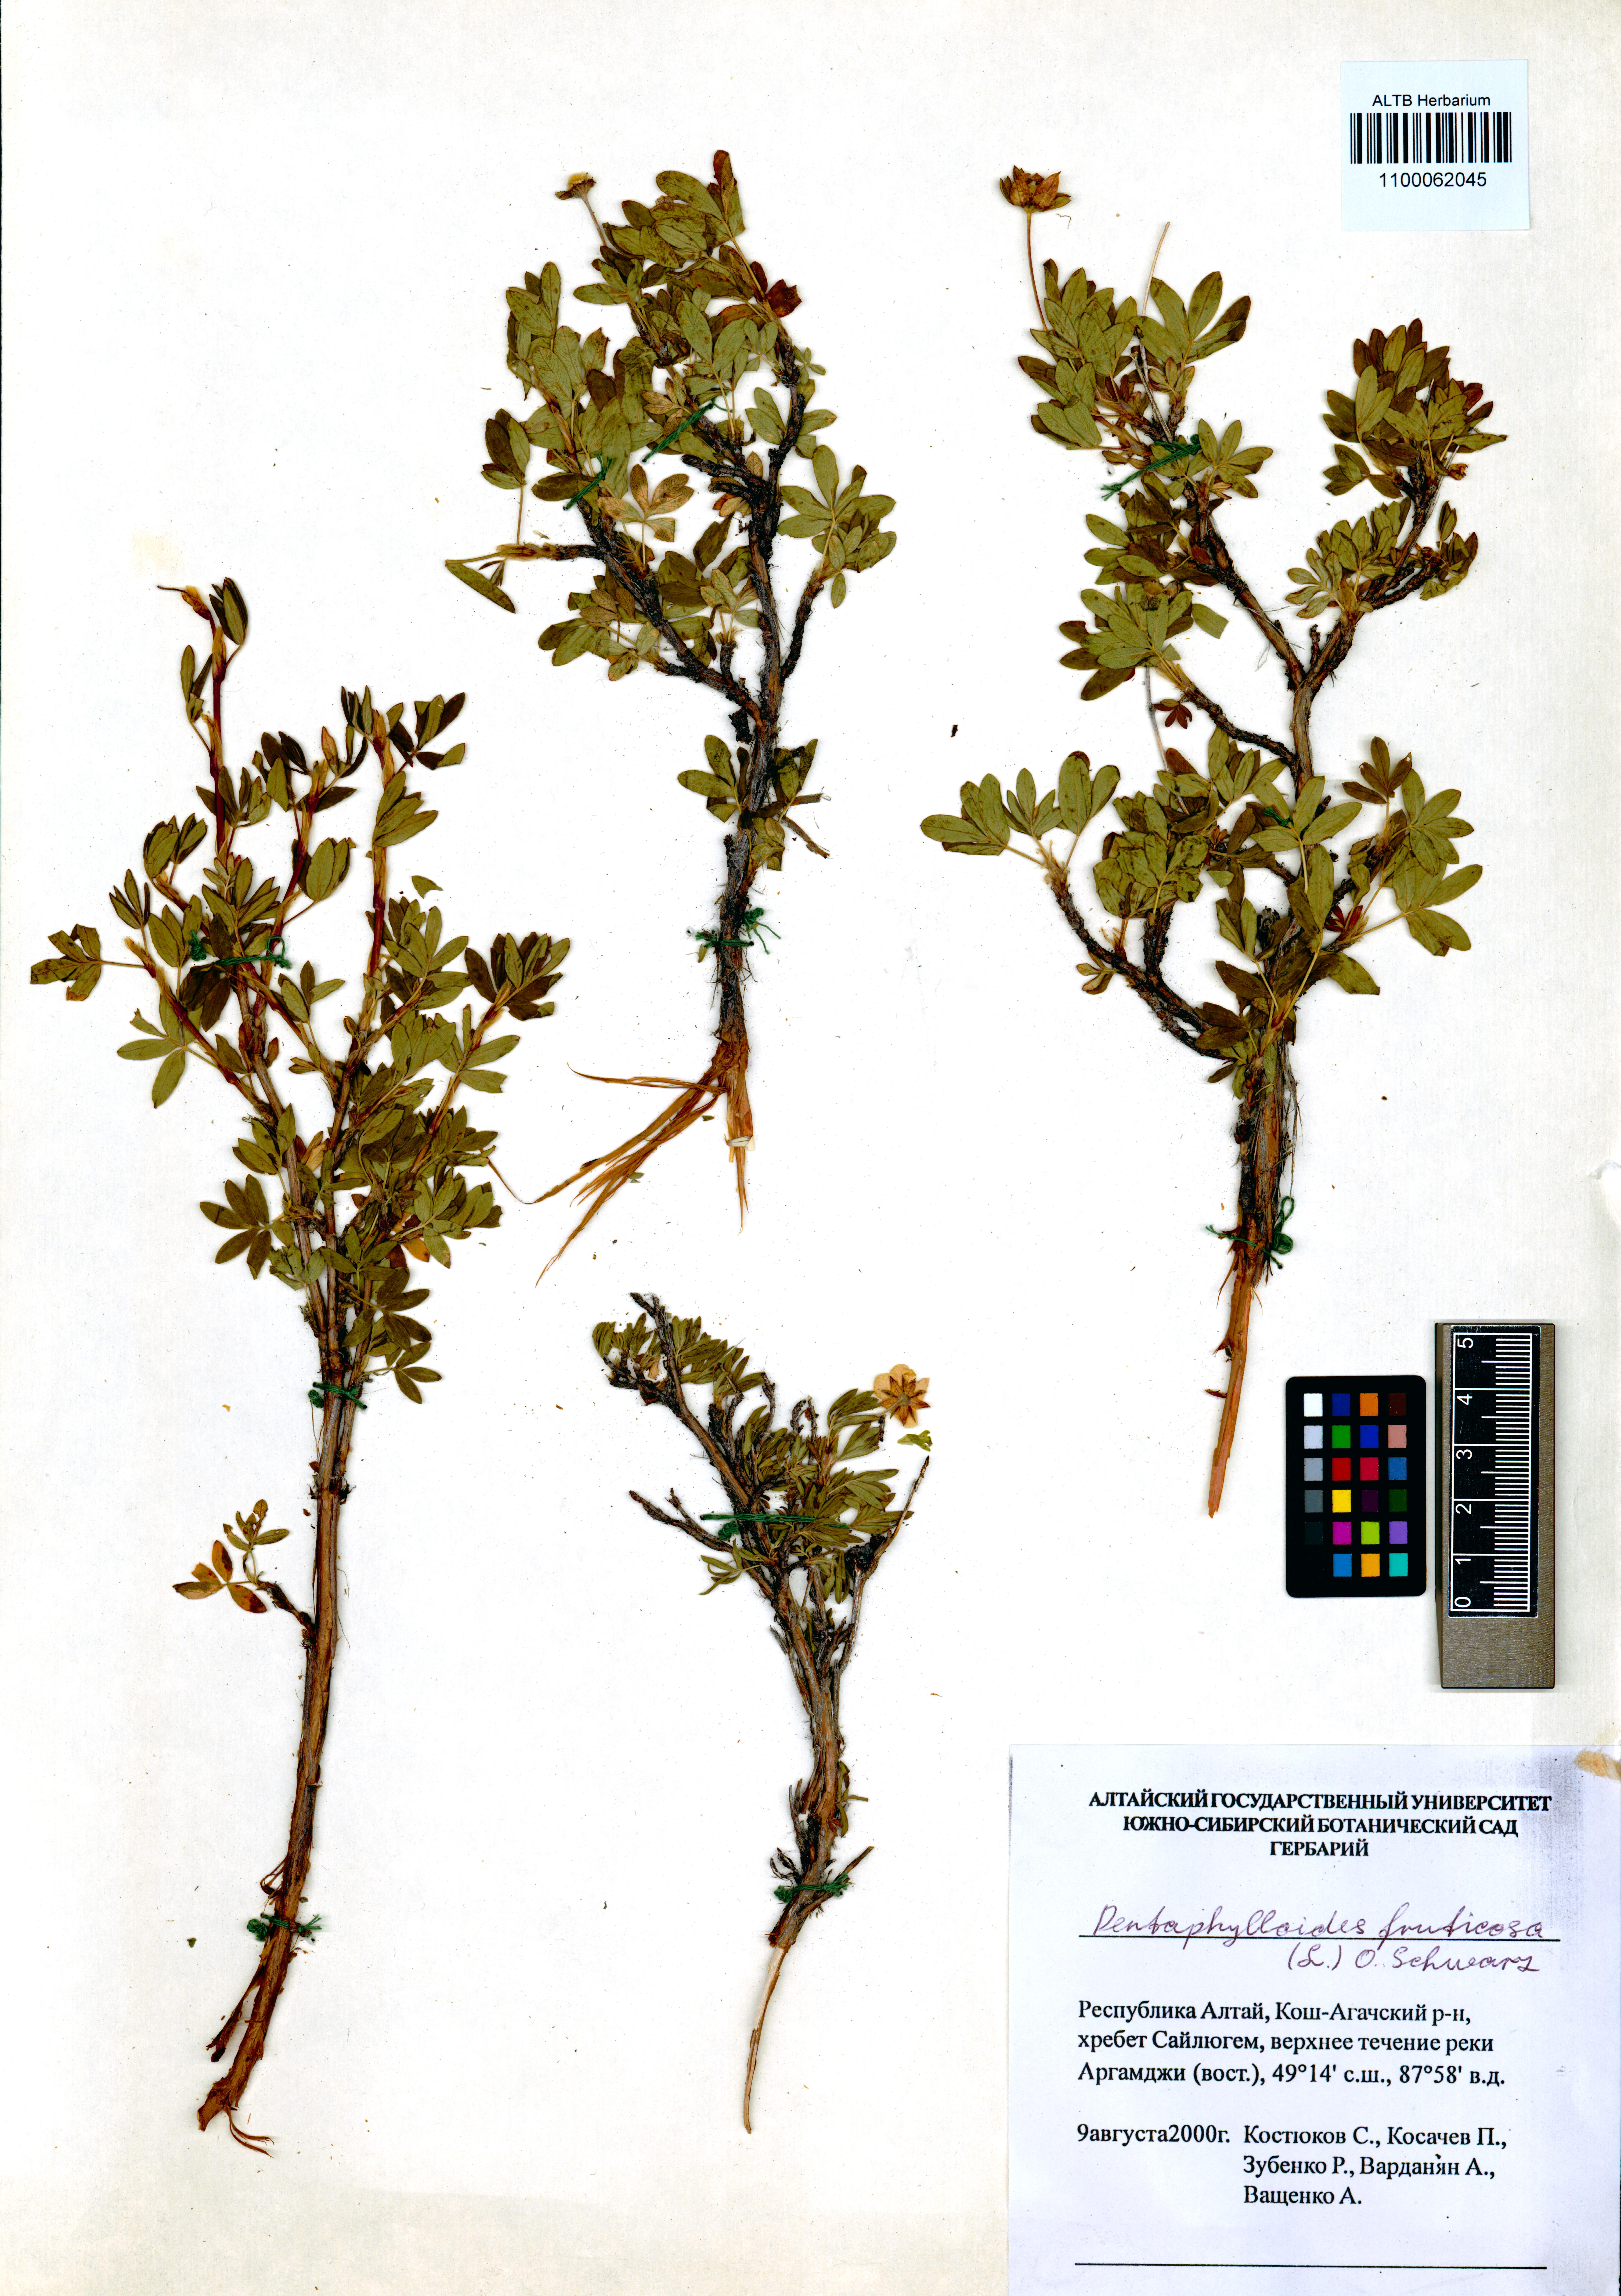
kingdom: Plantae
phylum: Tracheophyta
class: Magnoliopsida
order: Rosales
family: Rosaceae
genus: Dasiphora
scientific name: Dasiphora fruticosa
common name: Shrubby cinquefoil
